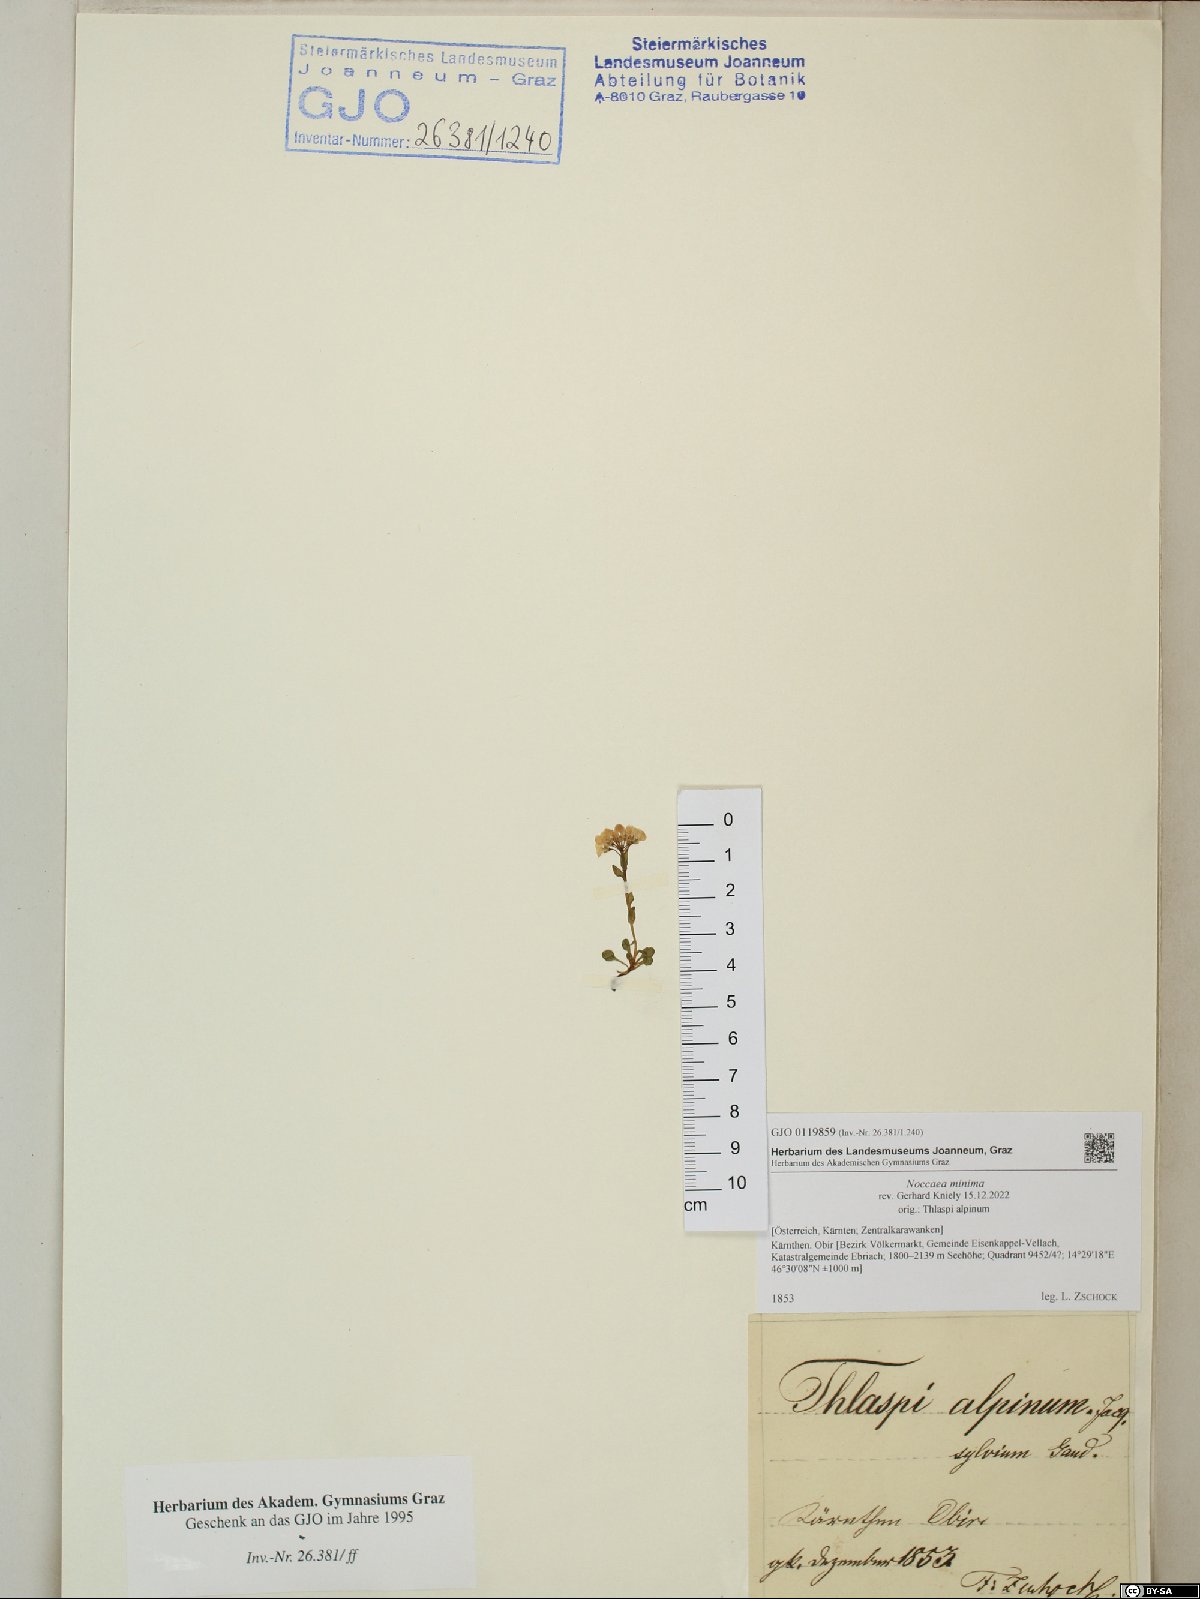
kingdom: Plantae
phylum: Tracheophyta
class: Magnoliopsida
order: Brassicales
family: Brassicaceae
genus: Noccaea
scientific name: Noccaea minima
